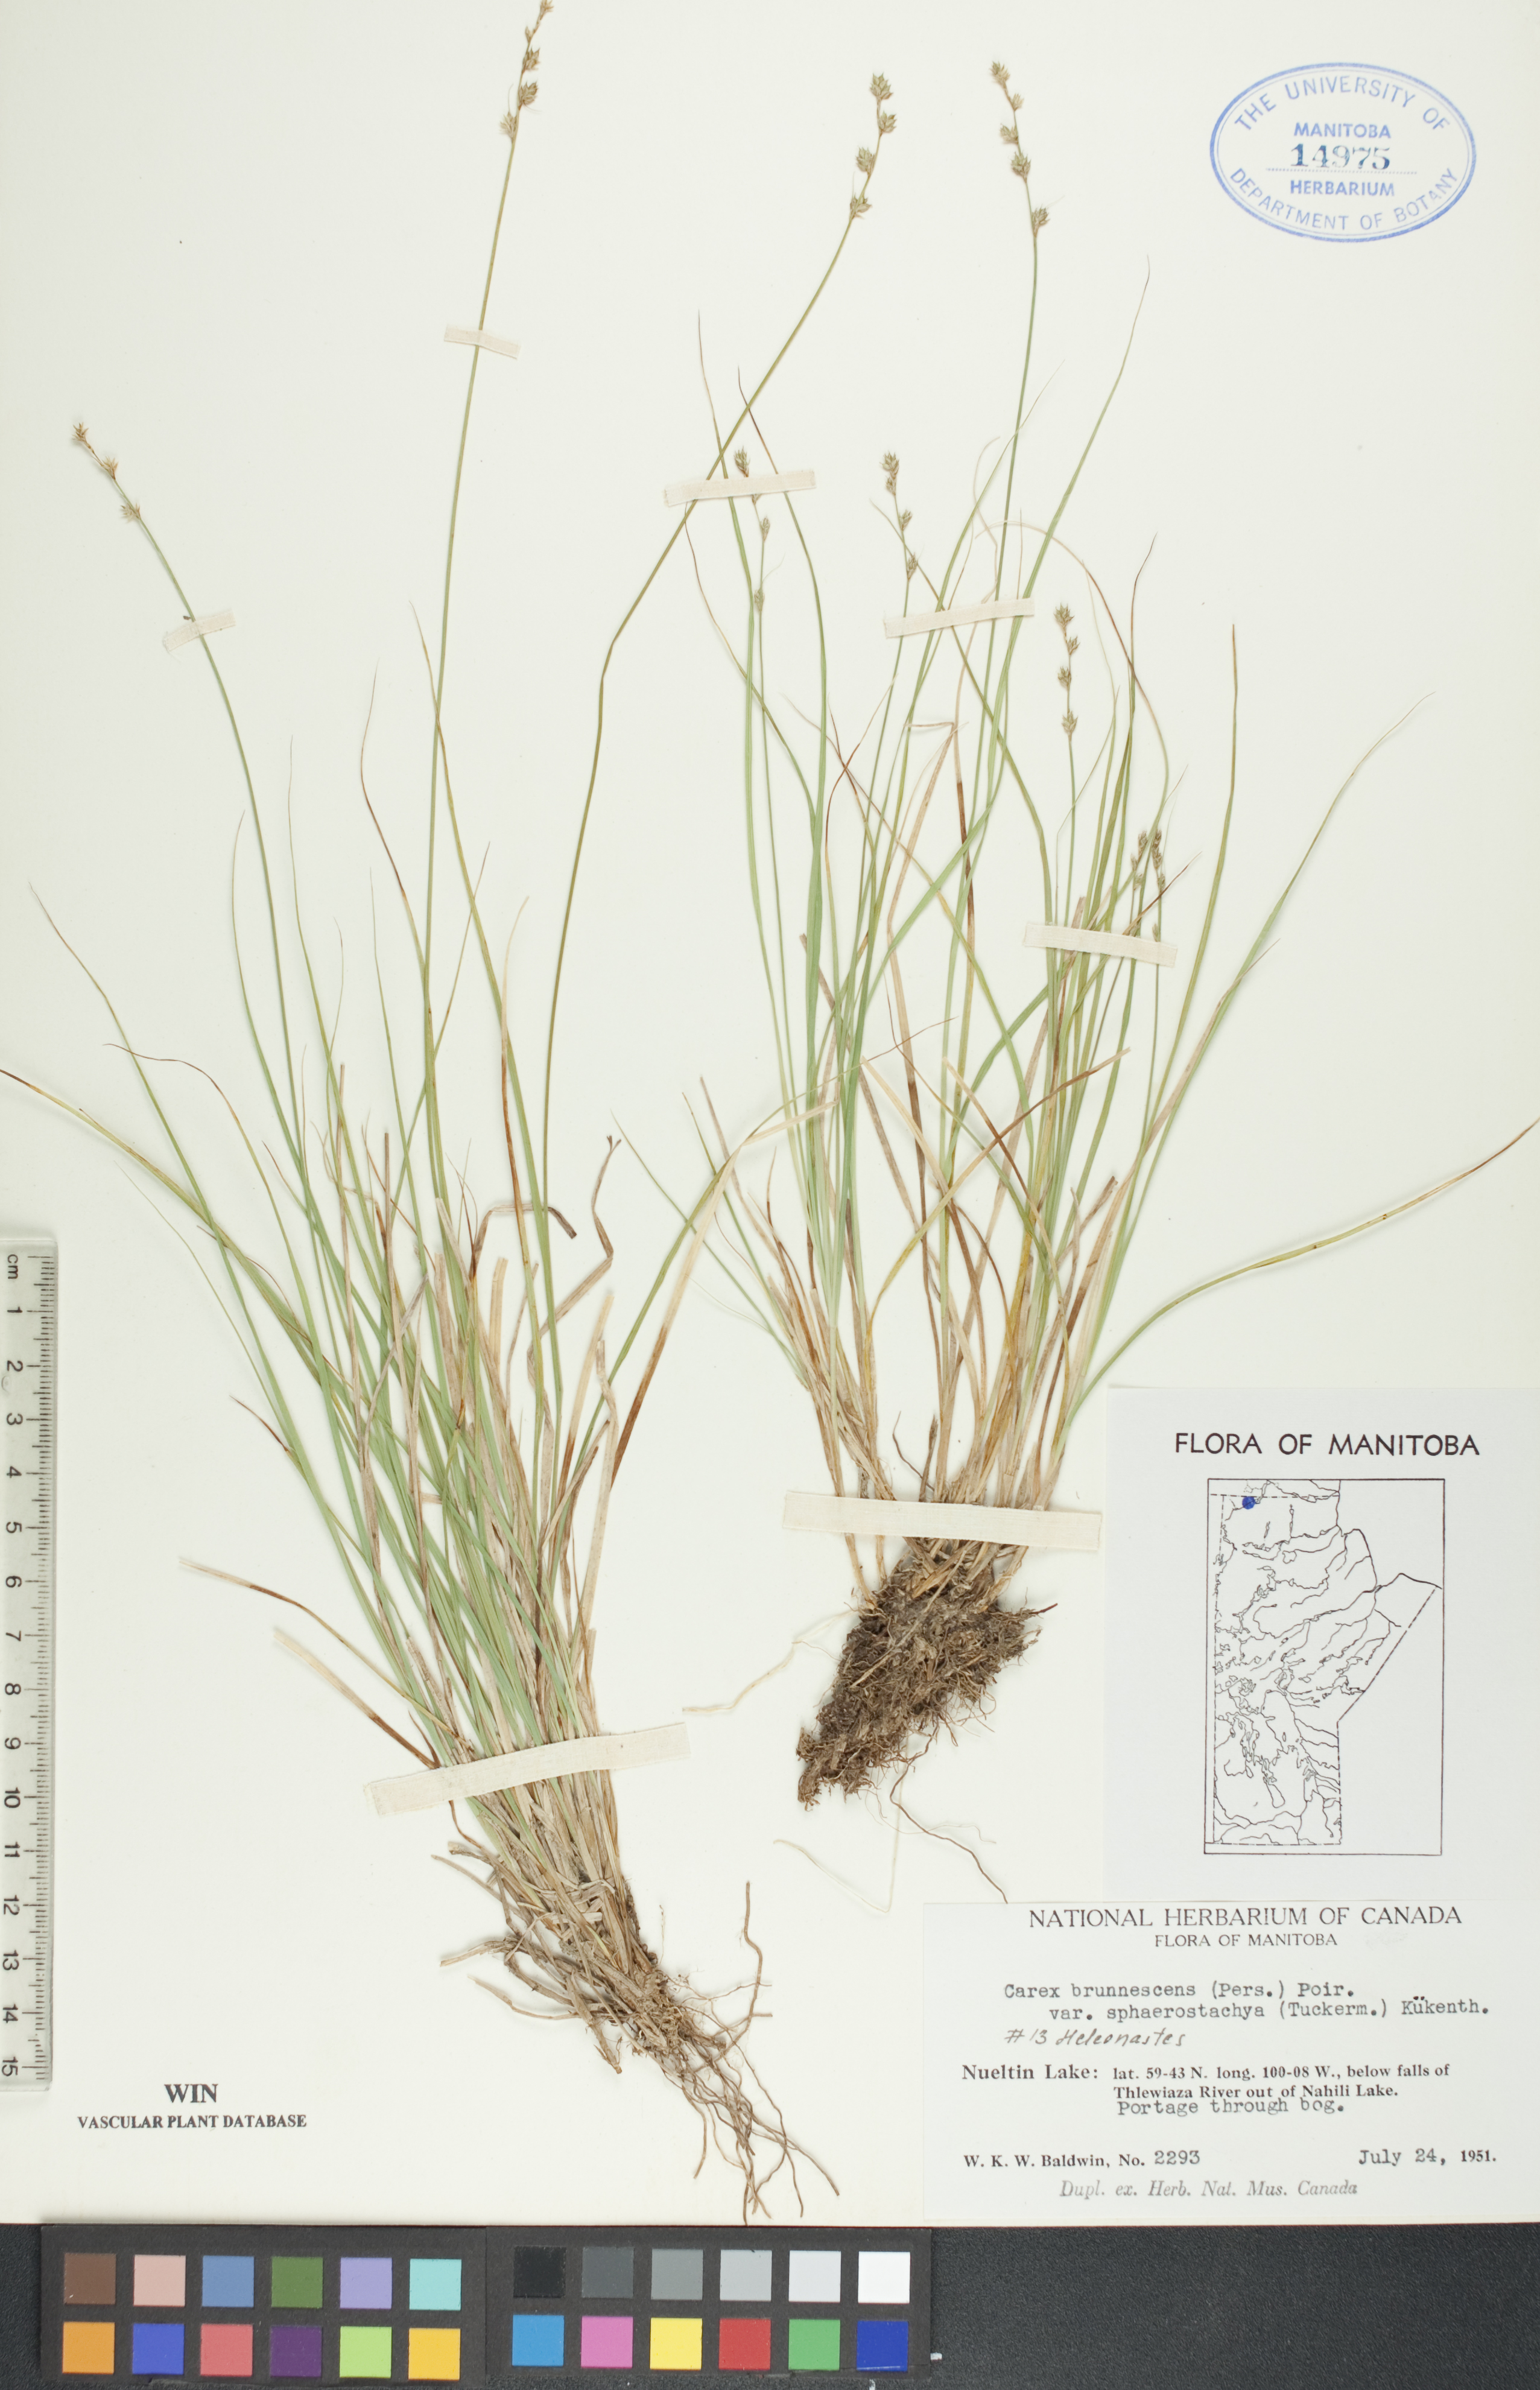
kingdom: Plantae
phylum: Tracheophyta
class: Liliopsida
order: Poales
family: Cyperaceae
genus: Carex
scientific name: Carex brunnescens
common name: Brown sedge
